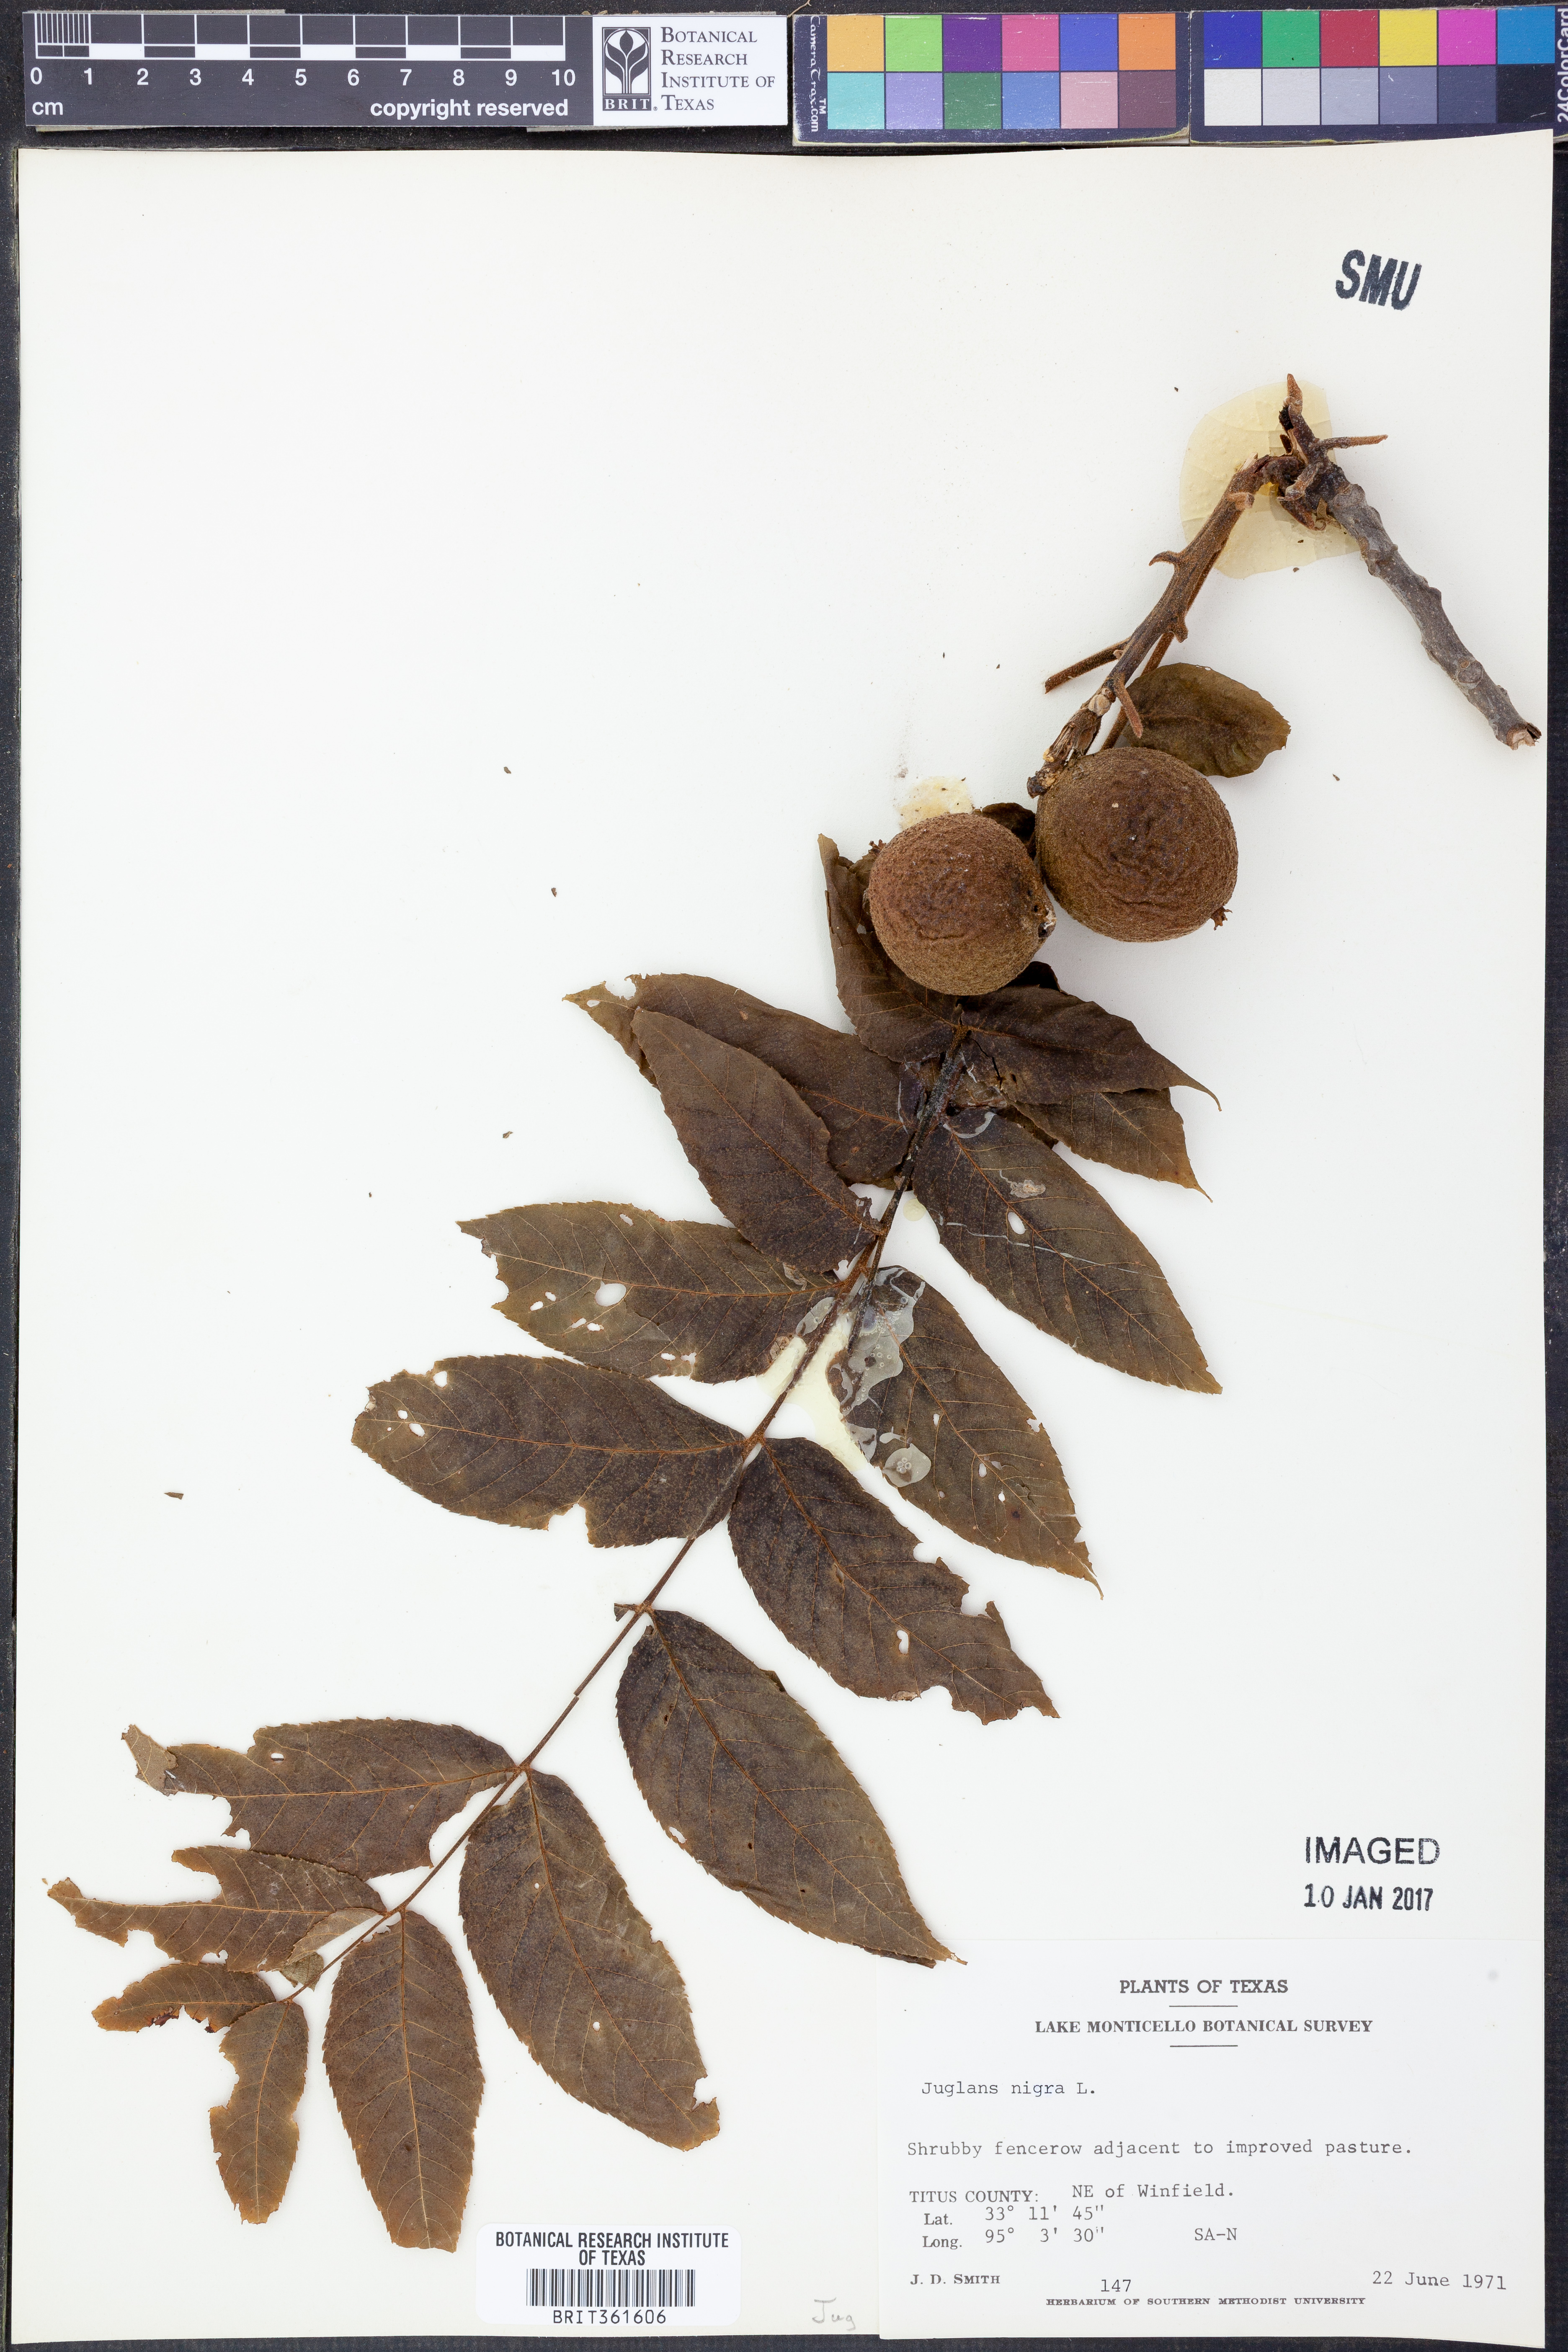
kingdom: Plantae
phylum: Tracheophyta
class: Magnoliopsida
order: Fagales
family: Juglandaceae
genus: Juglans
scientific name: Juglans nigra
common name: Black walnut
